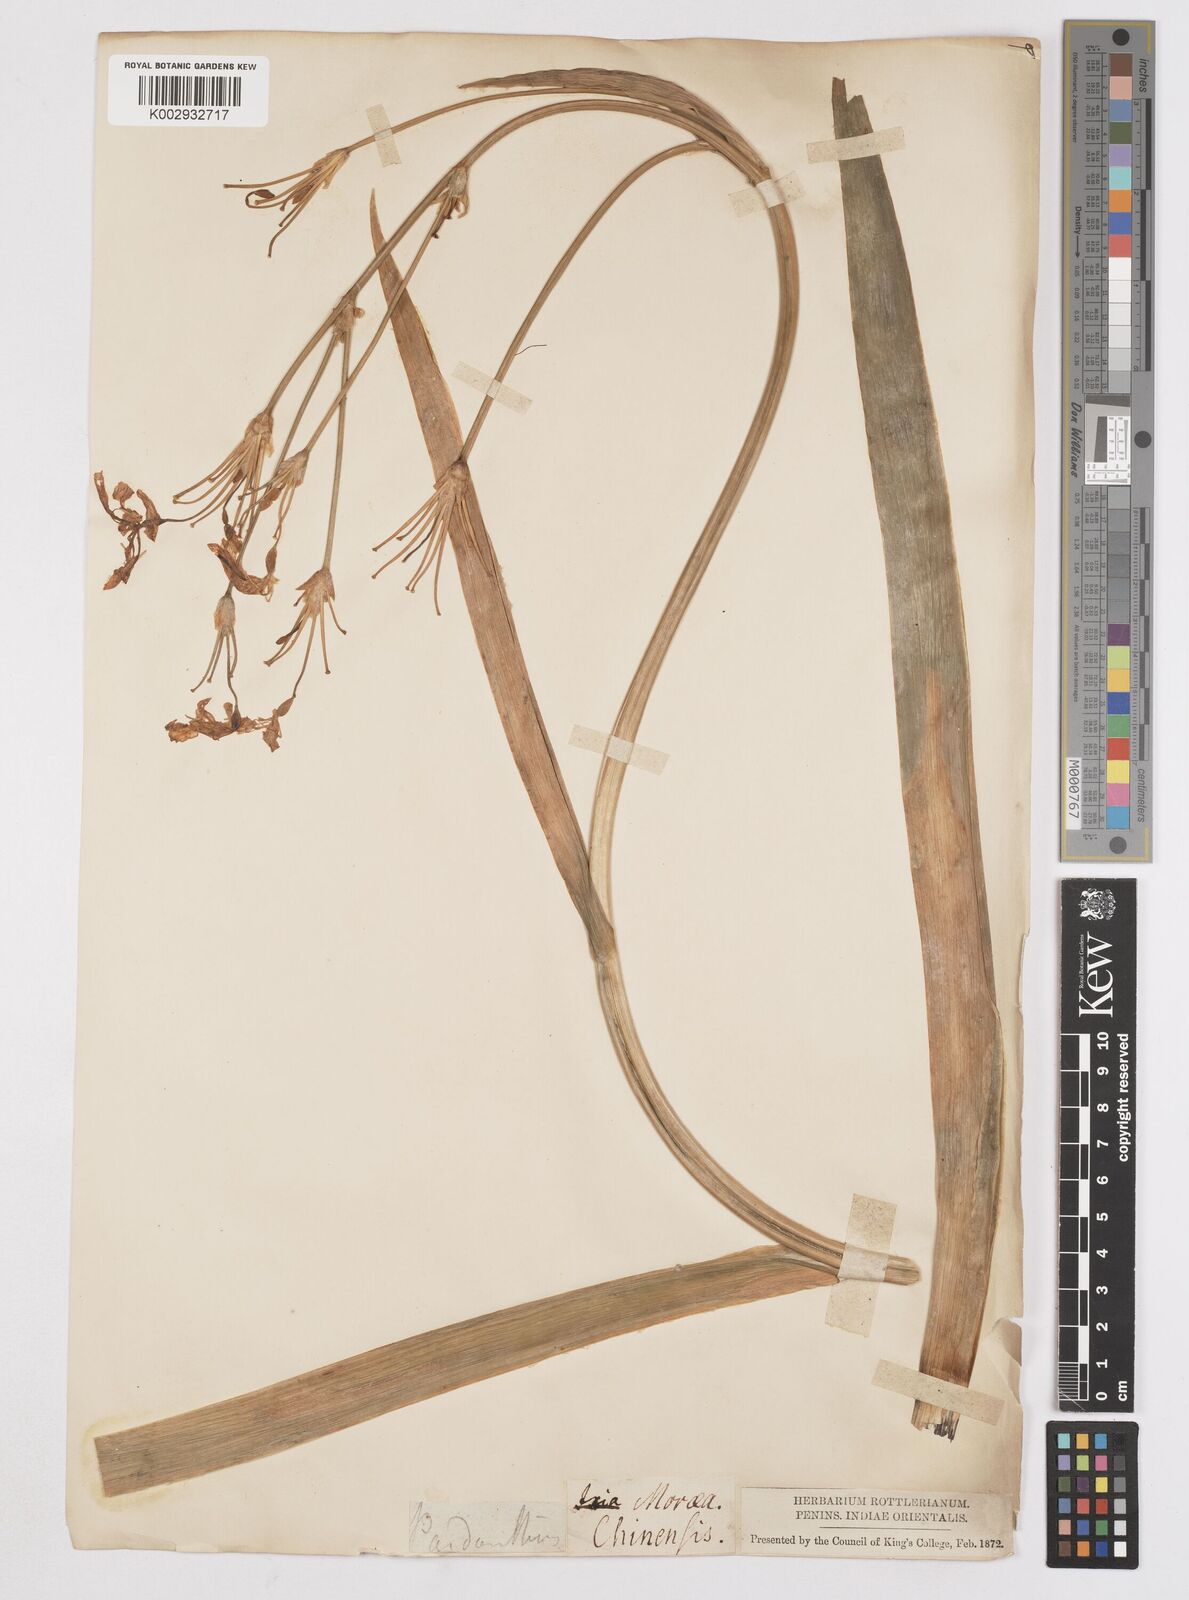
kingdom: Plantae
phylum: Tracheophyta
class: Liliopsida
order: Asparagales
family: Iridaceae
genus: Iris
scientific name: Iris
